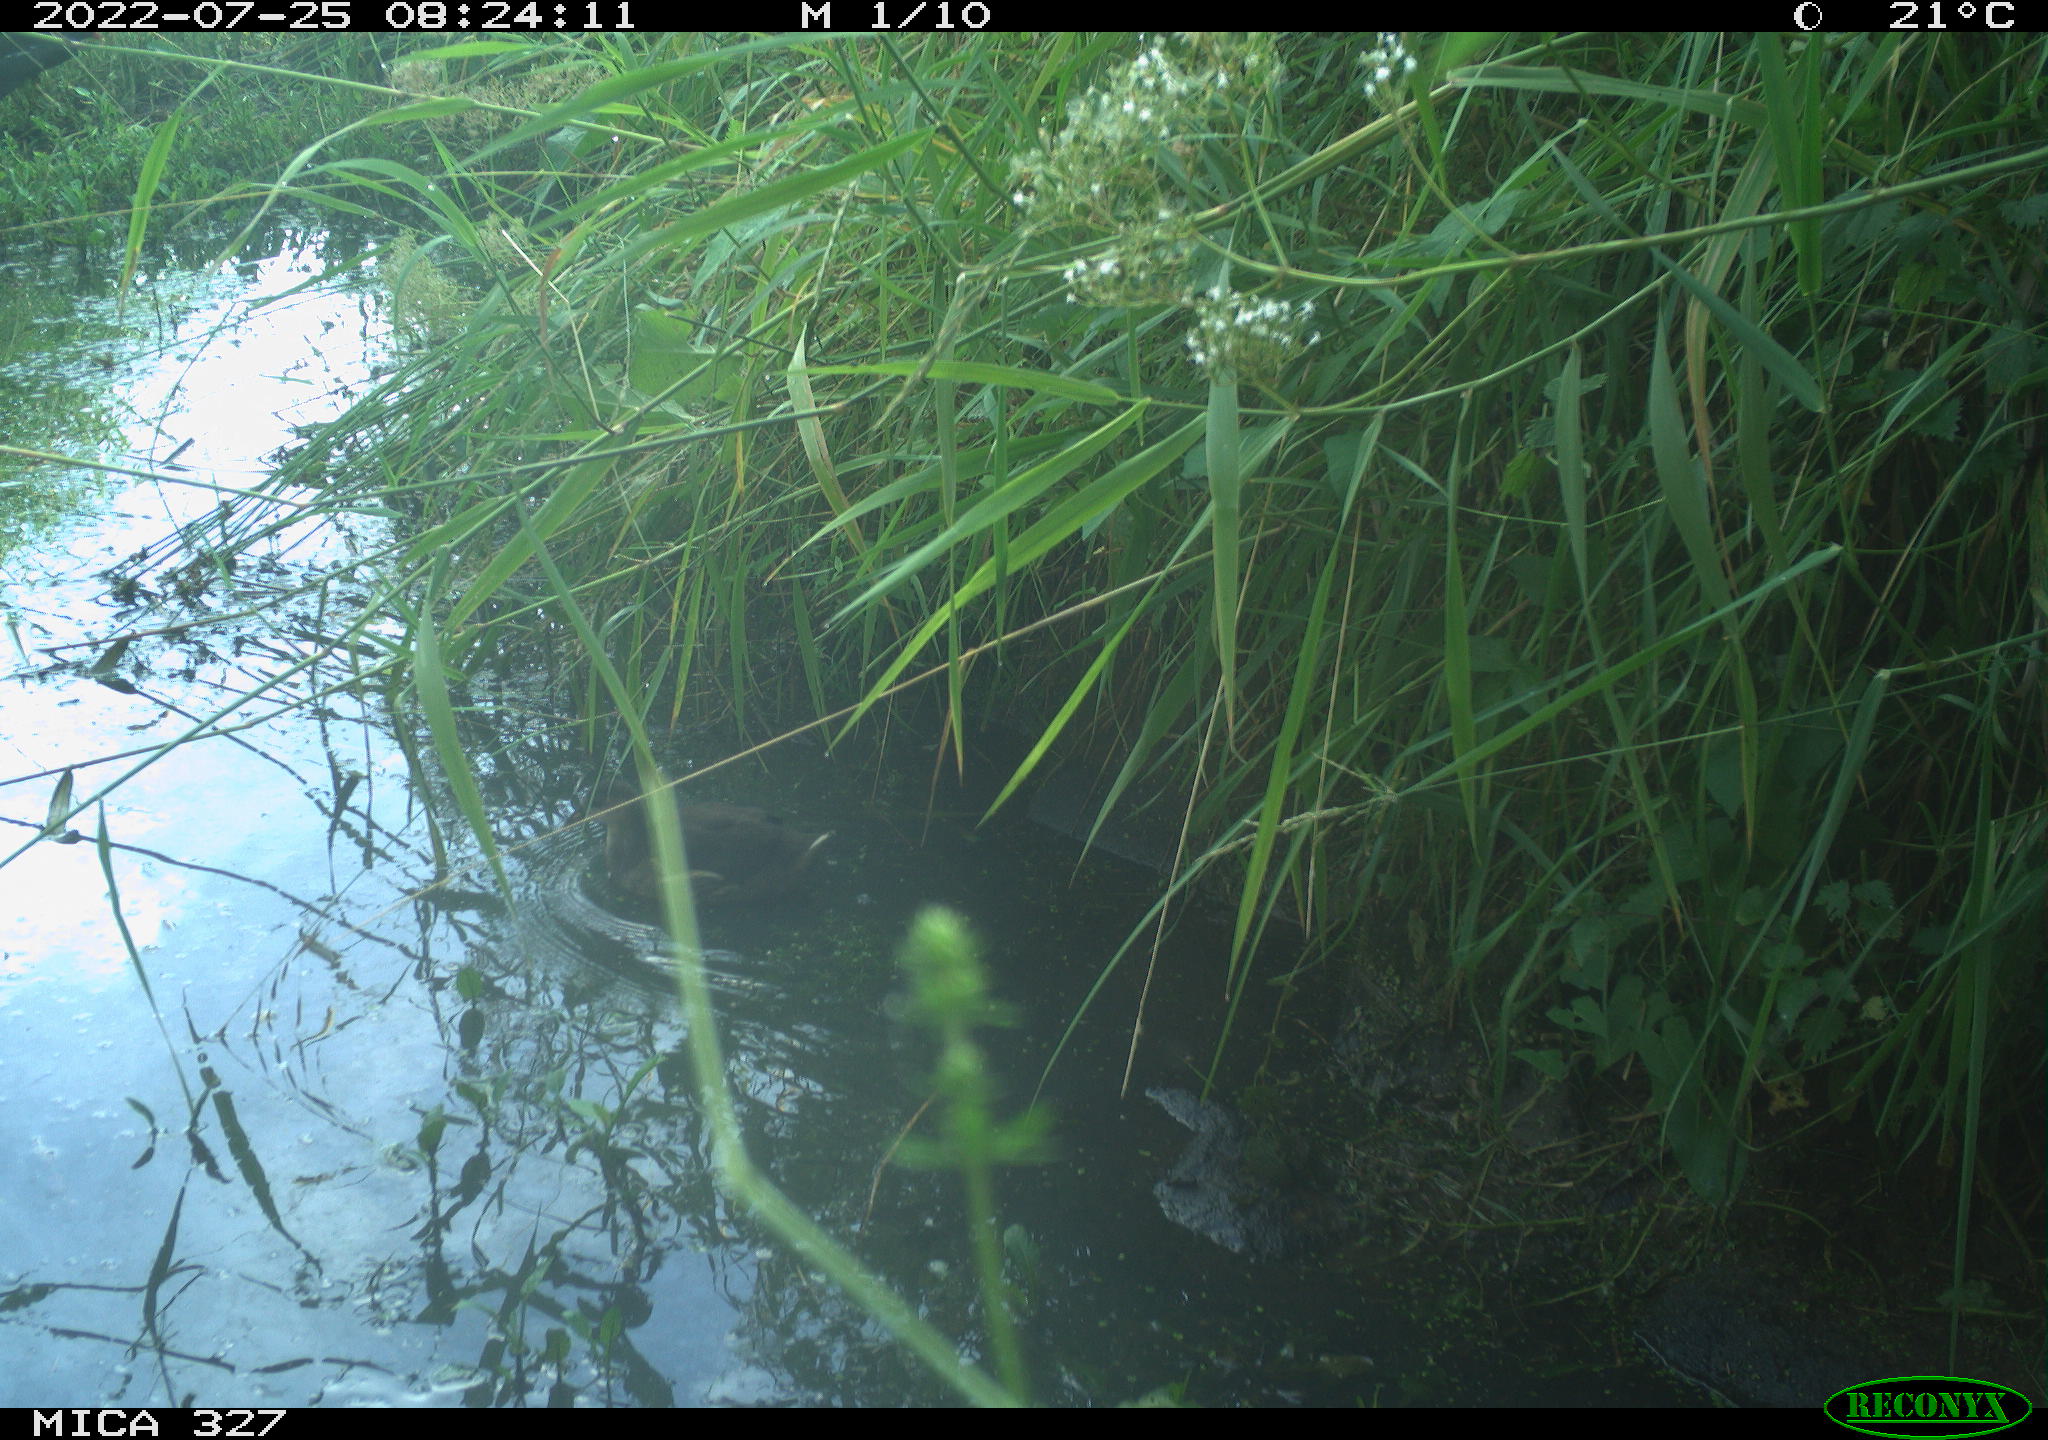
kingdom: Animalia
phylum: Chordata
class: Aves
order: Gruiformes
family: Rallidae
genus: Gallinula
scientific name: Gallinula chloropus
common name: Common moorhen
